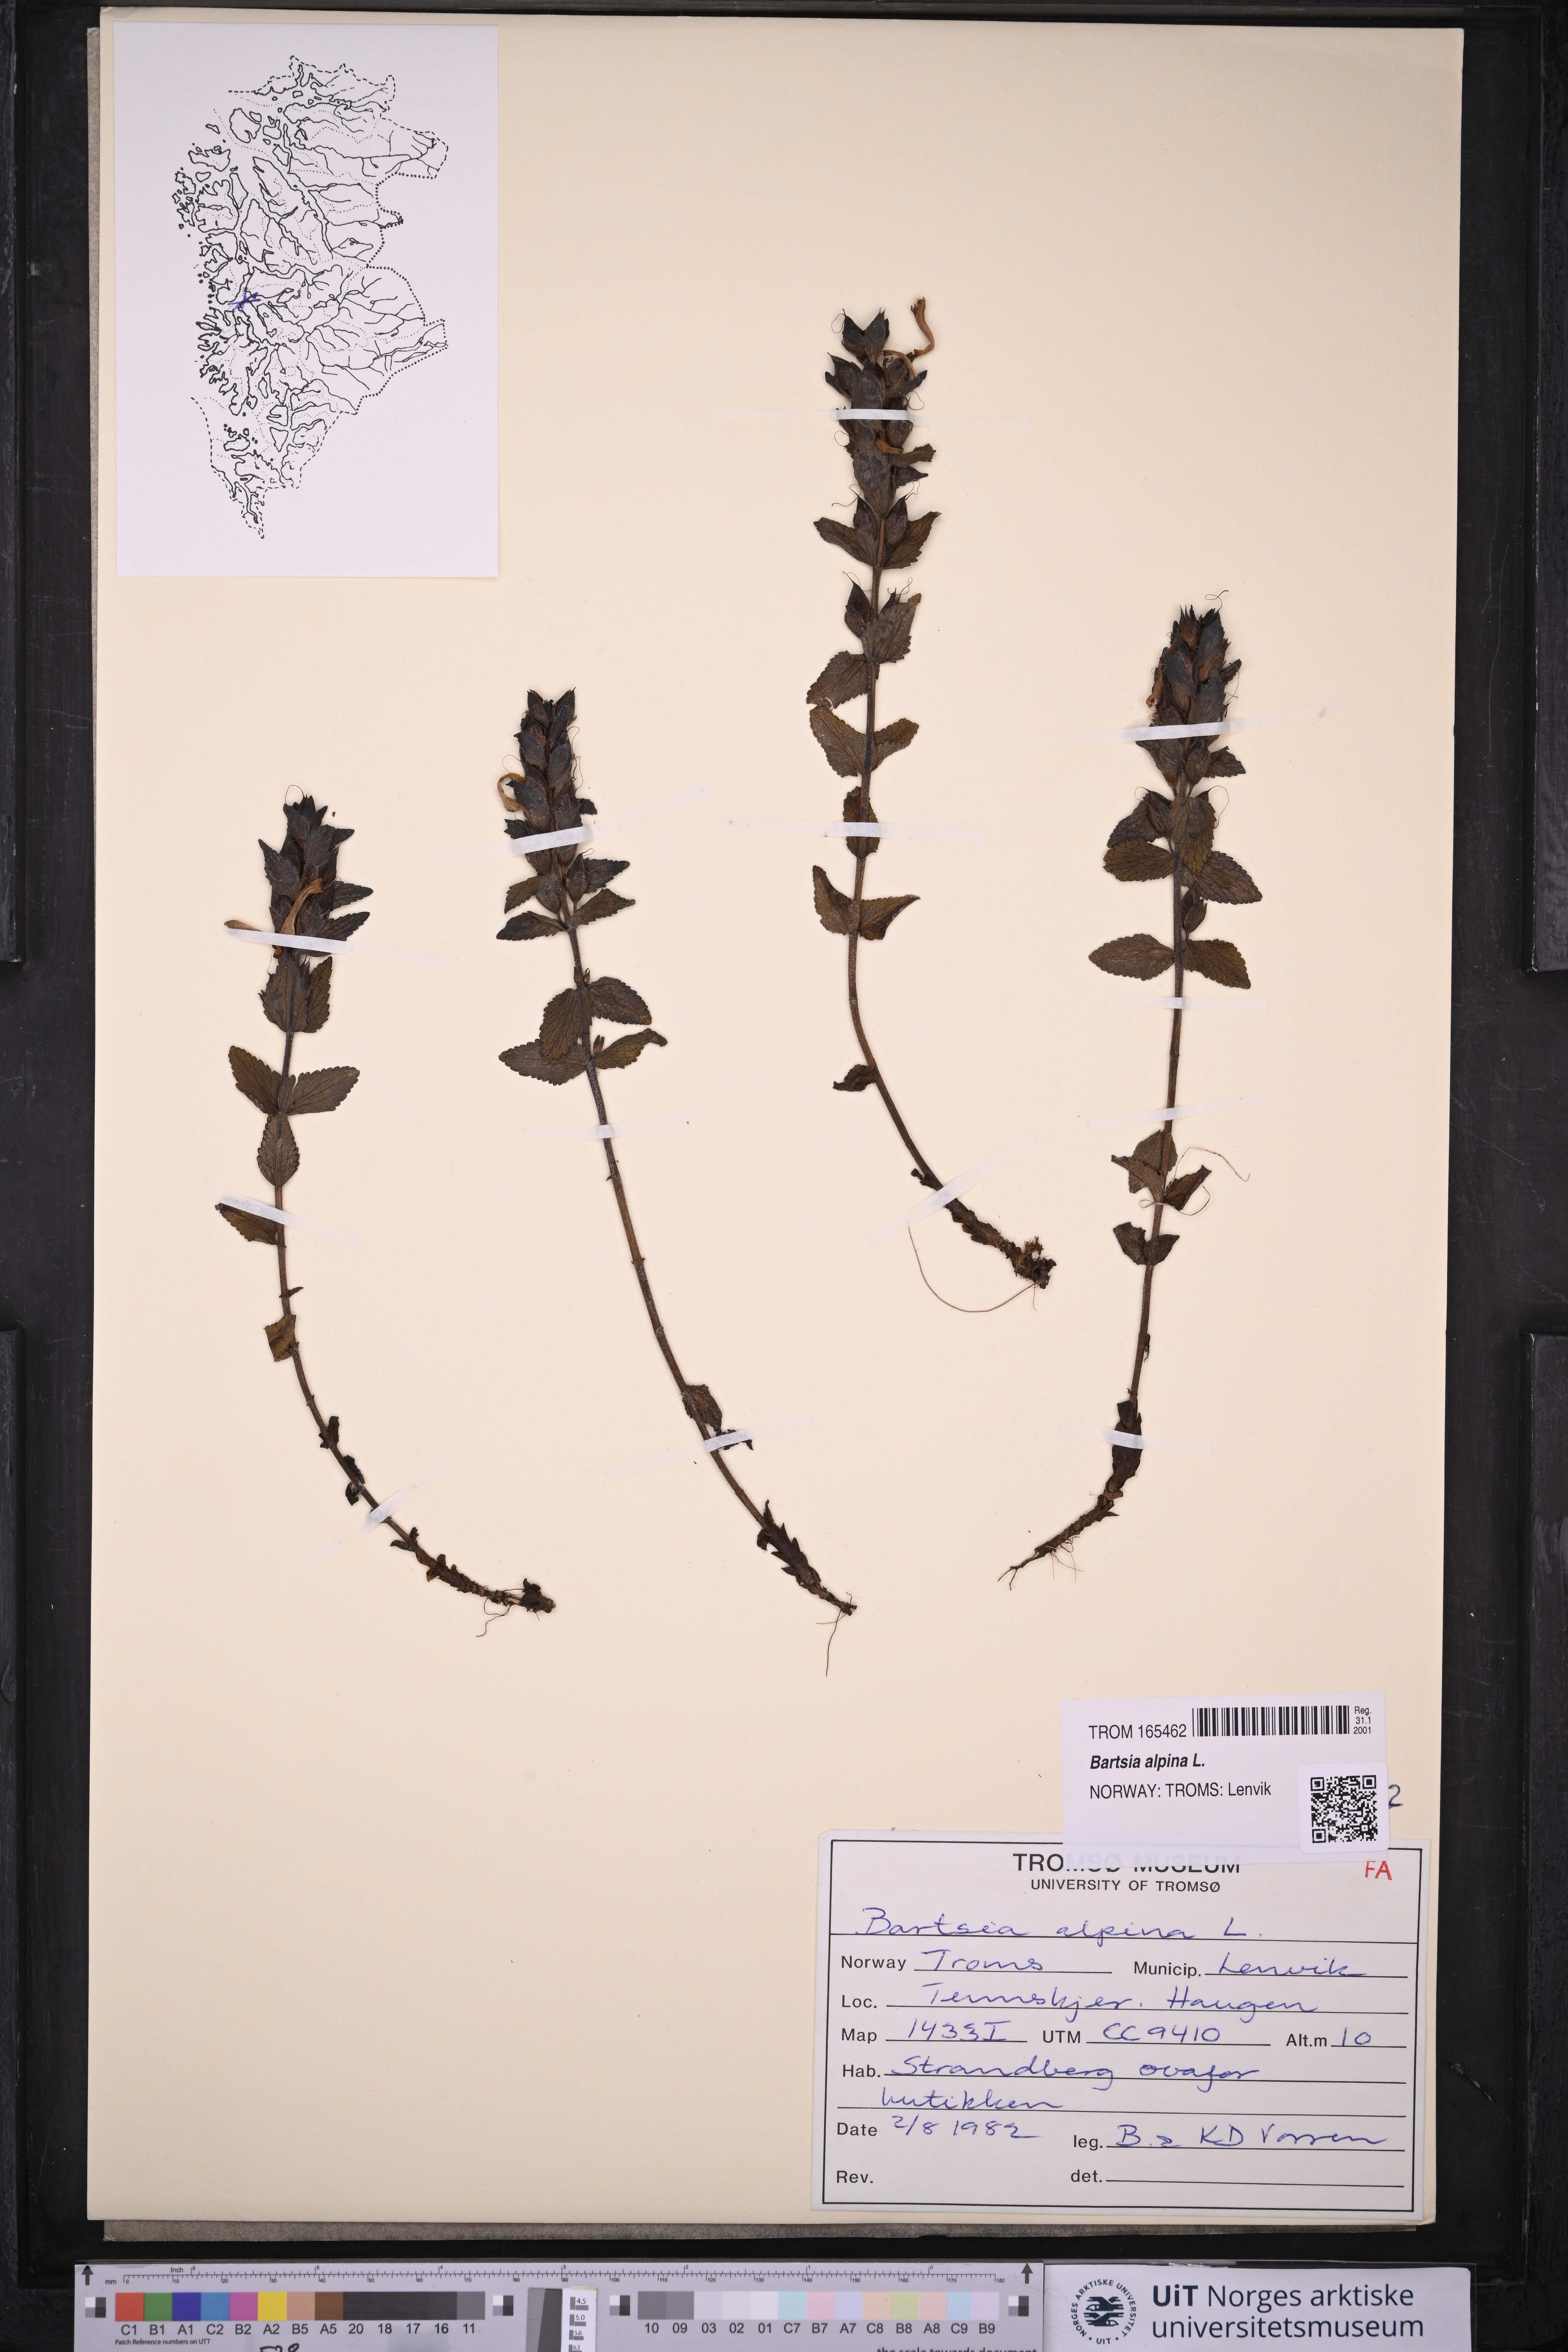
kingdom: Plantae
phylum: Tracheophyta
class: Magnoliopsida
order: Lamiales
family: Orobanchaceae
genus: Bartsia
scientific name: Bartsia alpina
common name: Alpine bartsia
